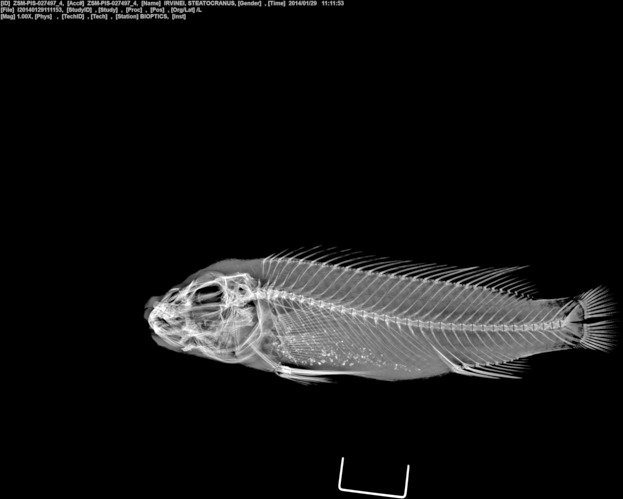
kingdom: Animalia
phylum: Chordata
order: Perciformes
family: Cichlidae
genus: Steatocranus
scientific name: Steatocranus irvinei
